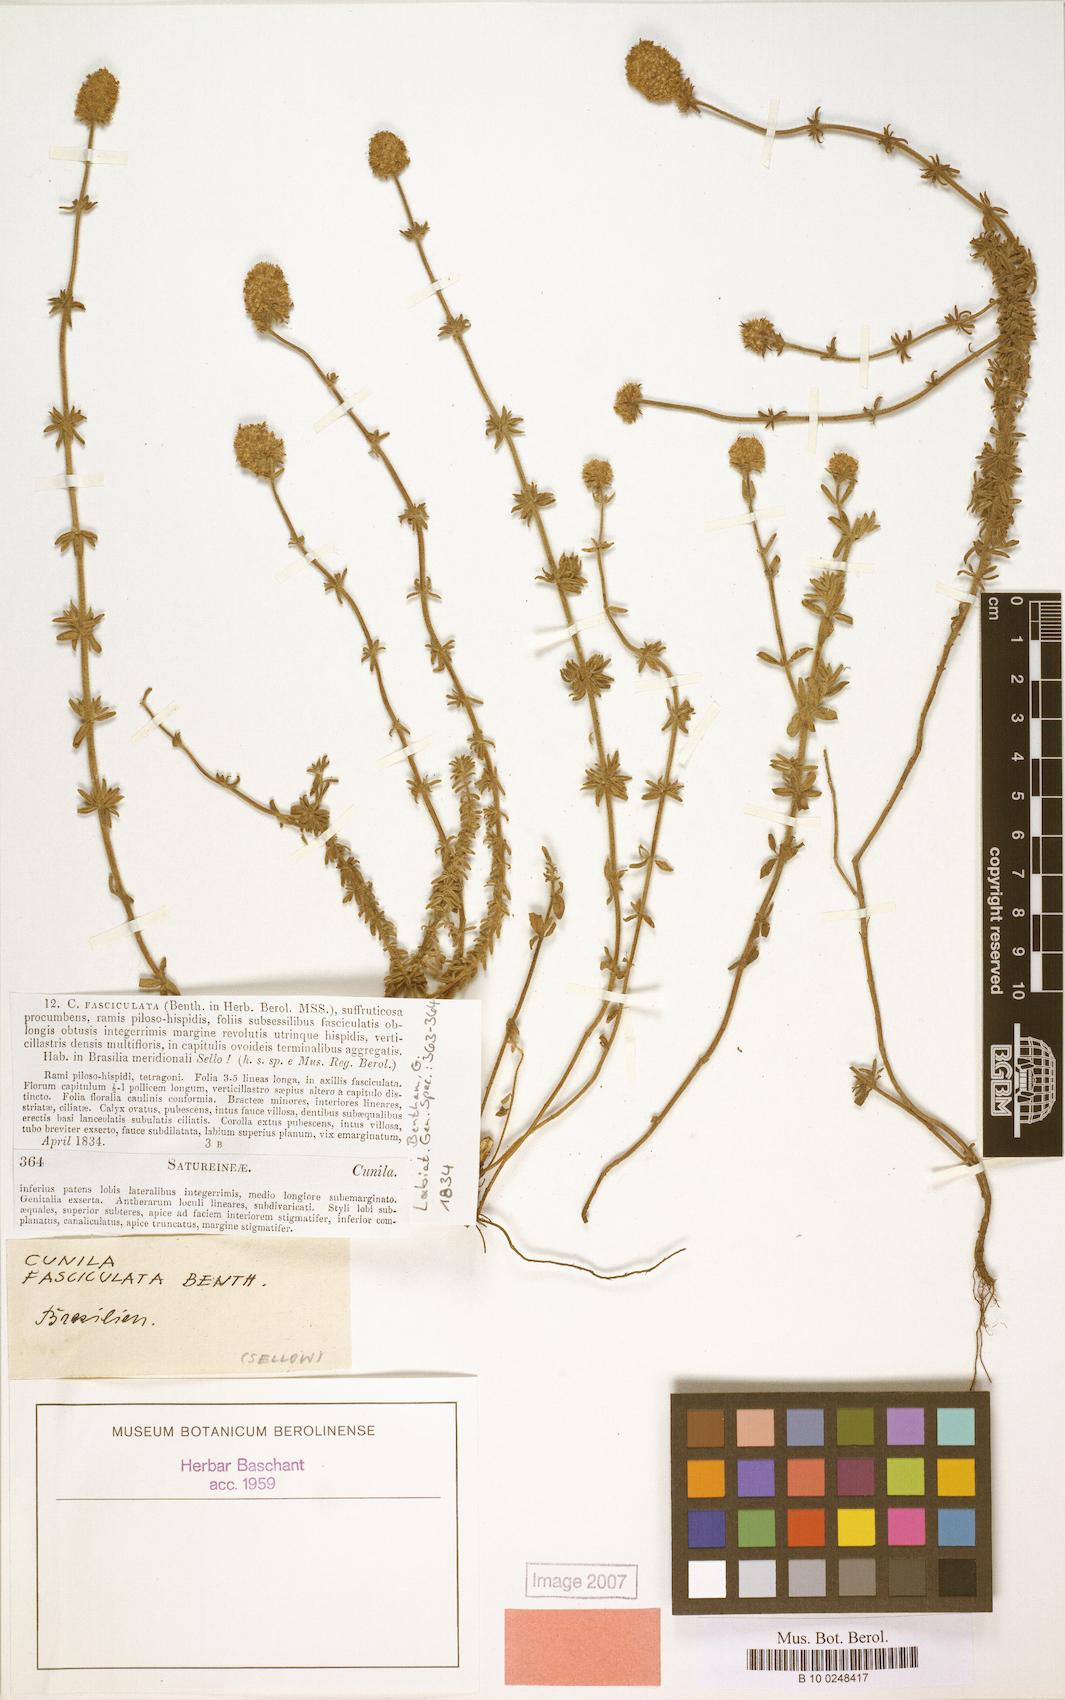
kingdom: Plantae
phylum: Tracheophyta
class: Magnoliopsida
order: Lamiales
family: Lamiaceae
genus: Cunila
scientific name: Cunila fasciculata
